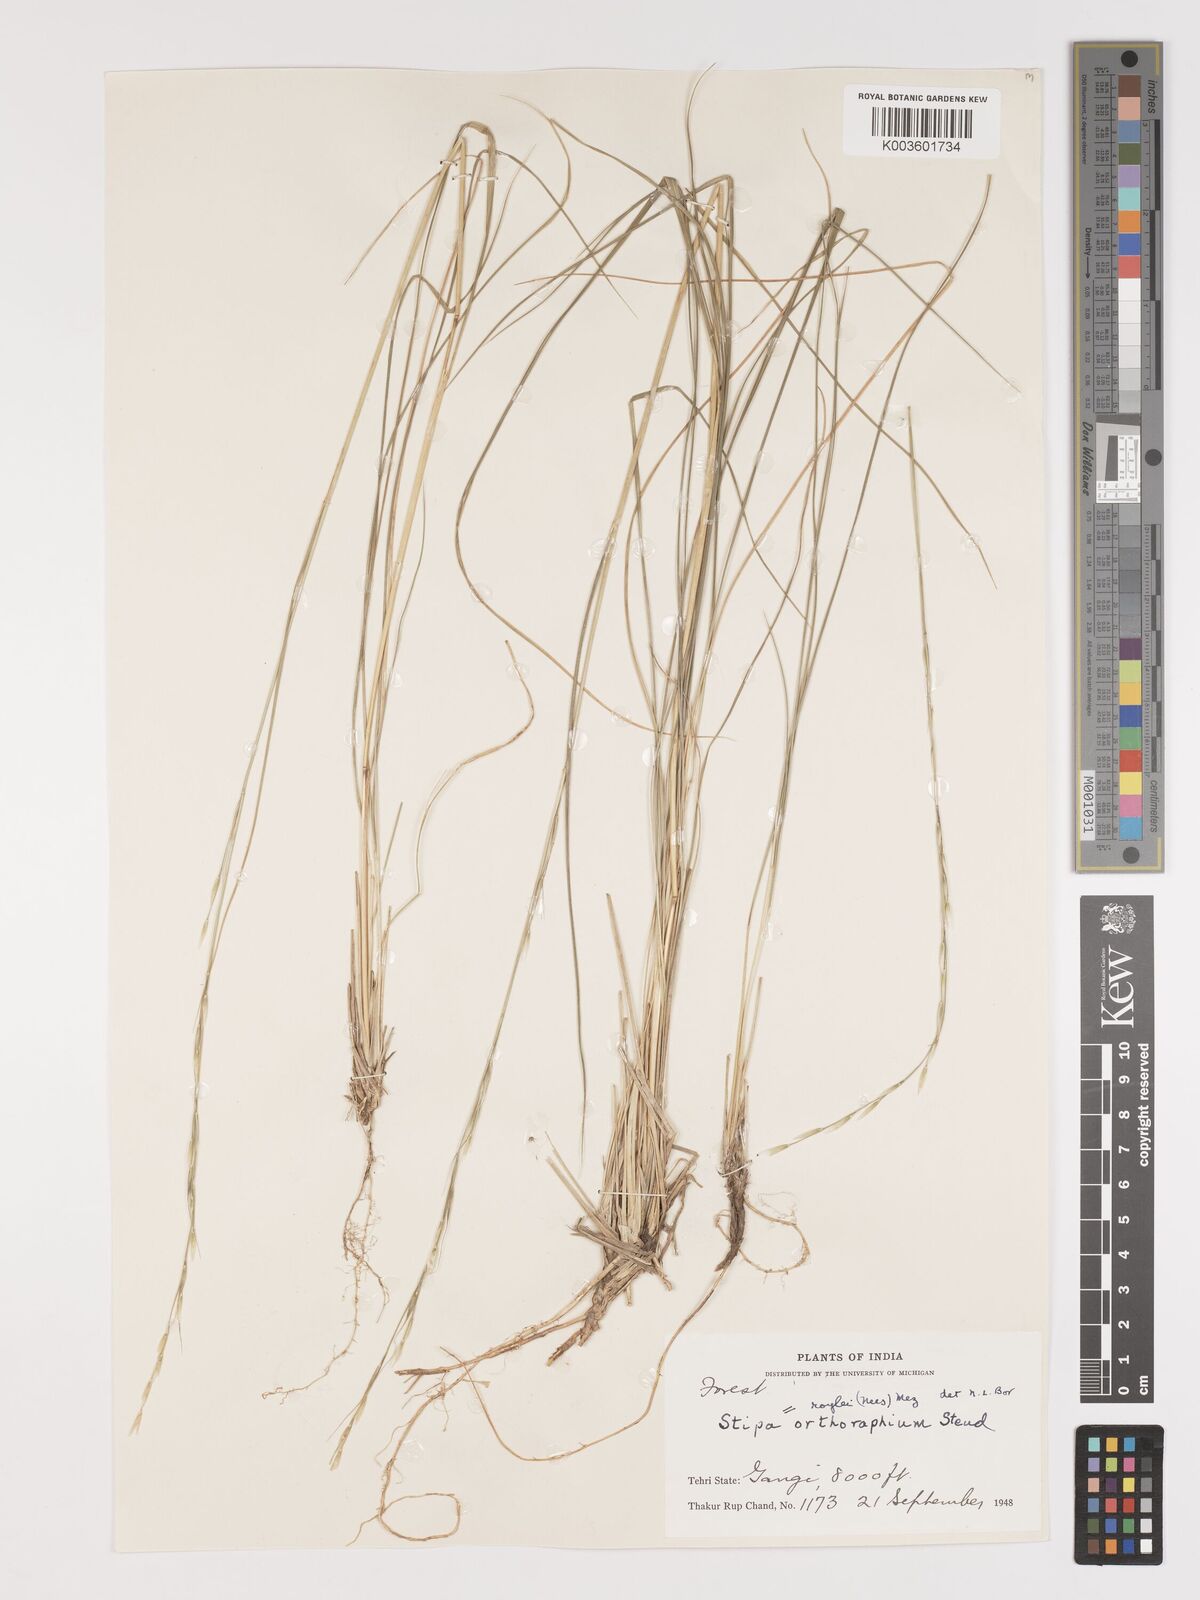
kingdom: Plantae
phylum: Tracheophyta
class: Liliopsida
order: Poales
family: Poaceae
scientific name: Poaceae
